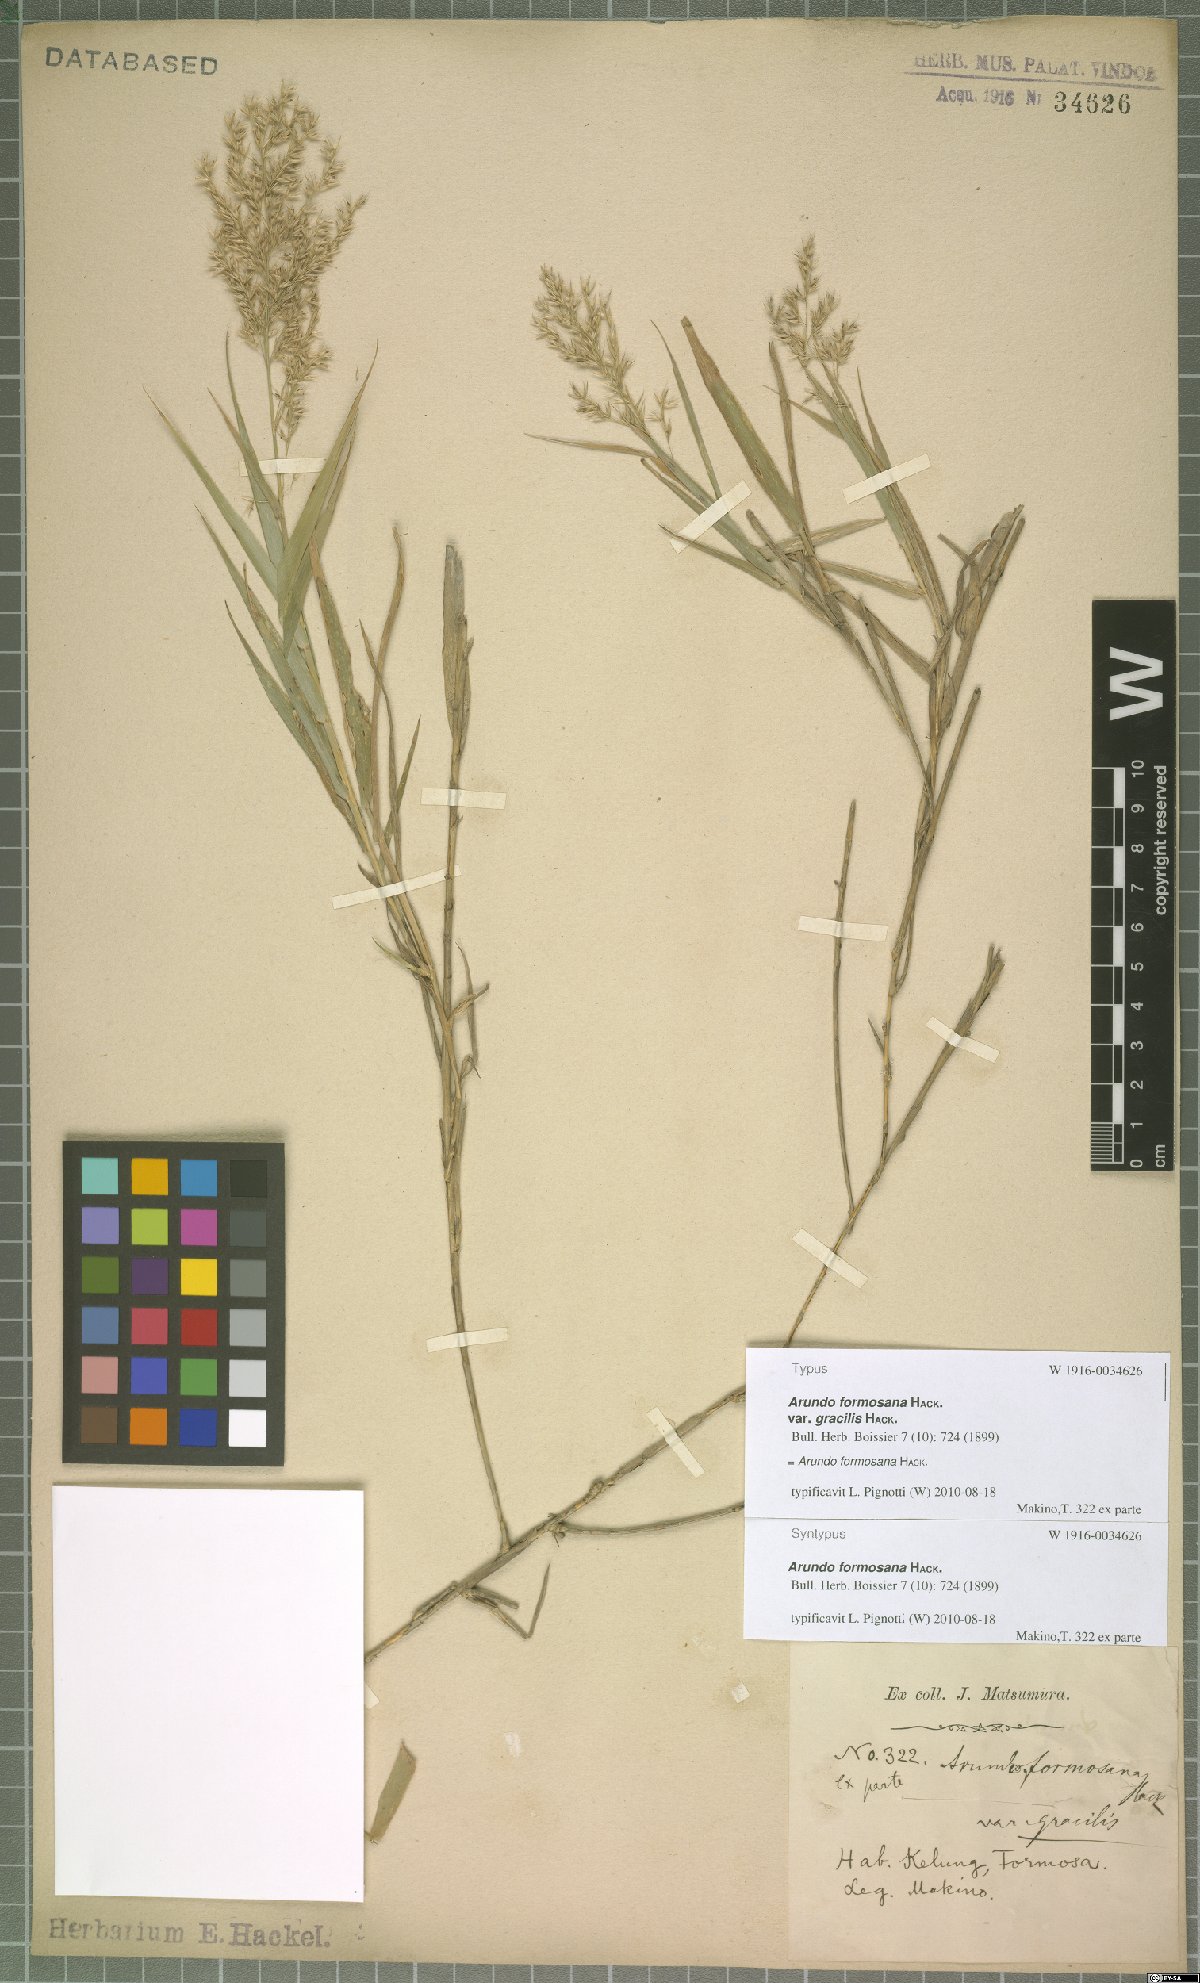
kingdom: Plantae
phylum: Tracheophyta
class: Liliopsida
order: Poales
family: Poaceae
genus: Arundo
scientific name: Arundo formosana
